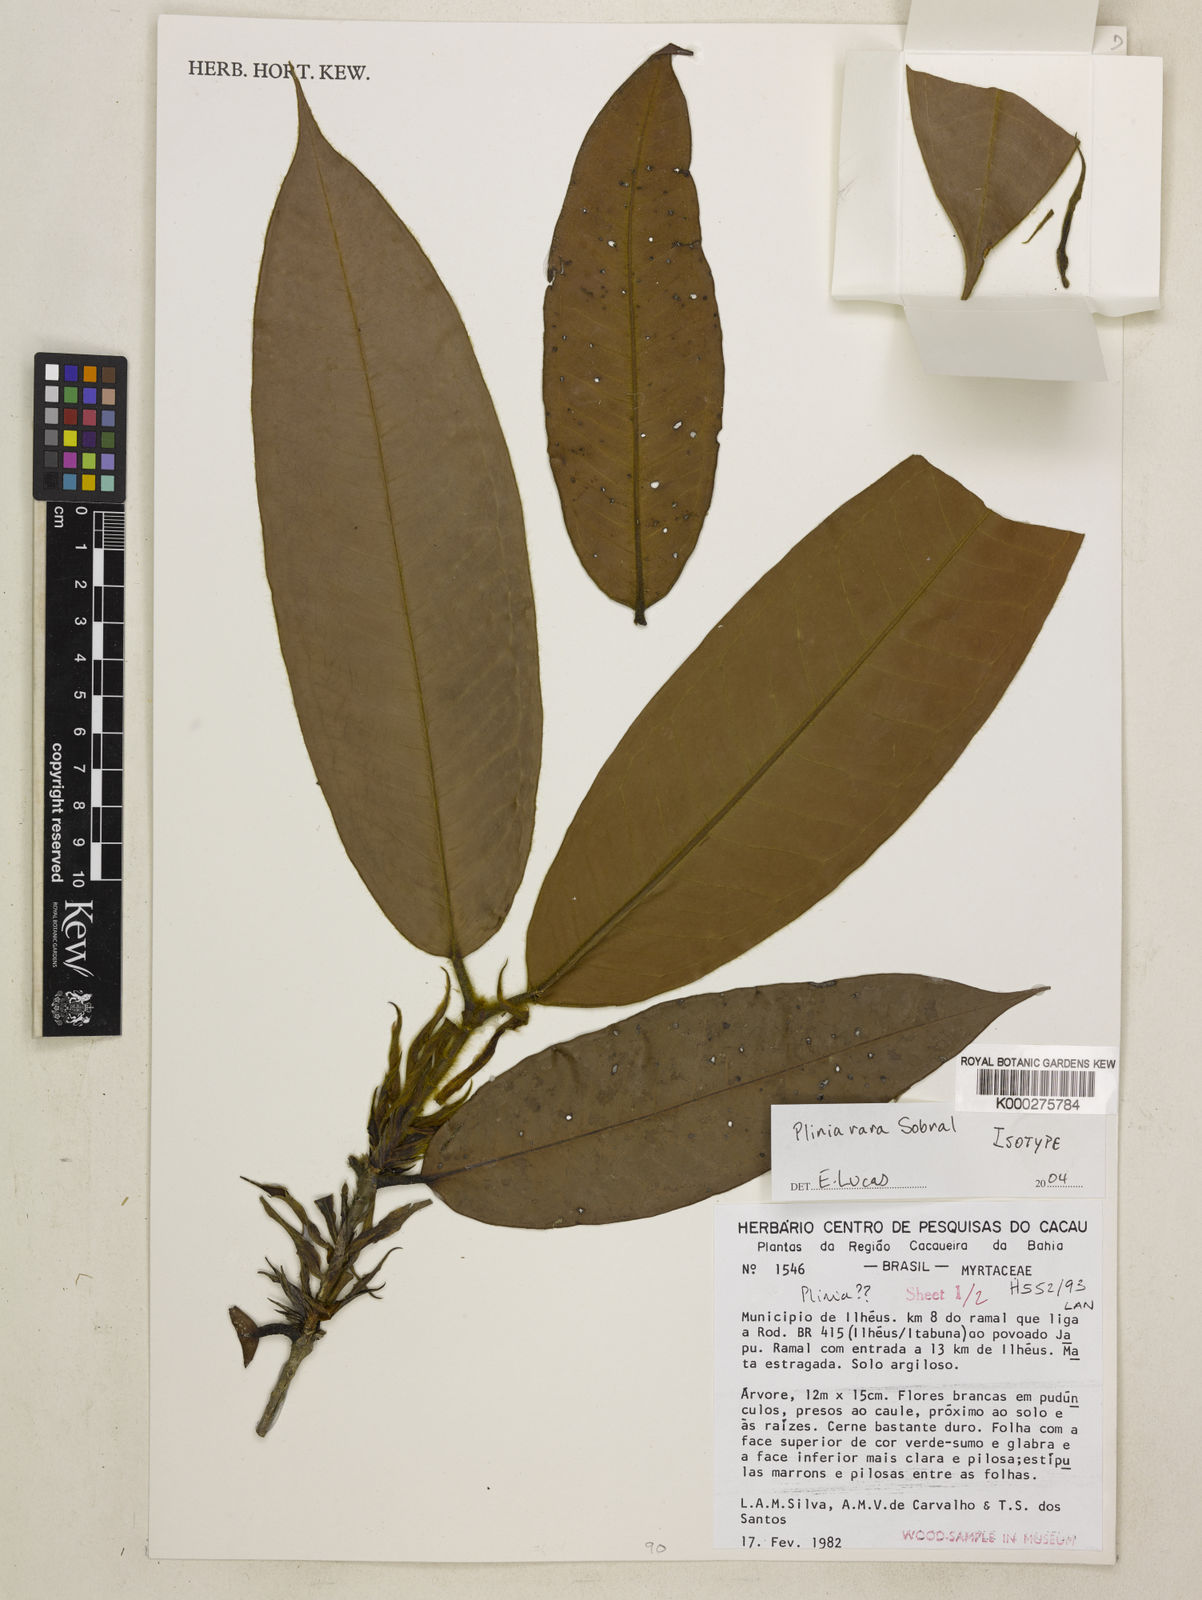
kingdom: Plantae
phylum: Tracheophyta
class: Magnoliopsida
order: Myrtales
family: Myrtaceae
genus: Plinia
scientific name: Plinia rara
